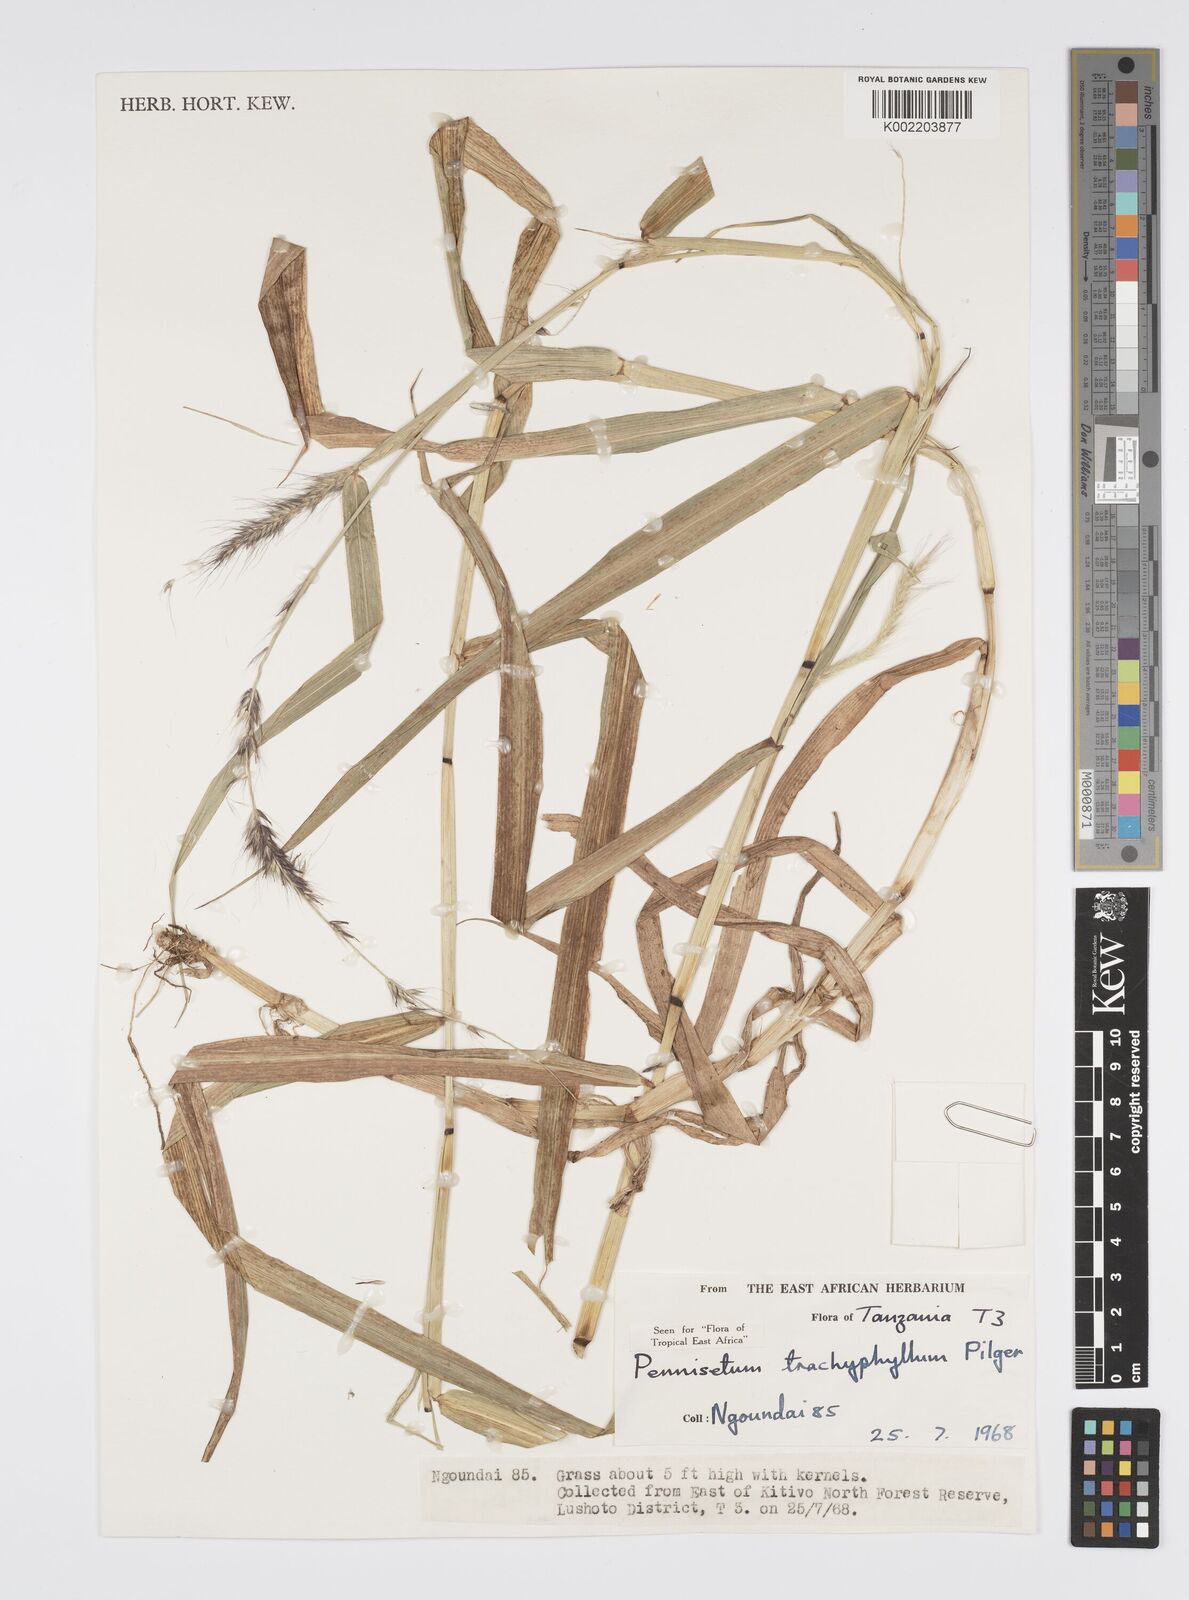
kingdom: Plantae
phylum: Tracheophyta
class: Liliopsida
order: Poales
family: Poaceae
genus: Cenchrus
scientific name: Cenchrus trachyphyllus
